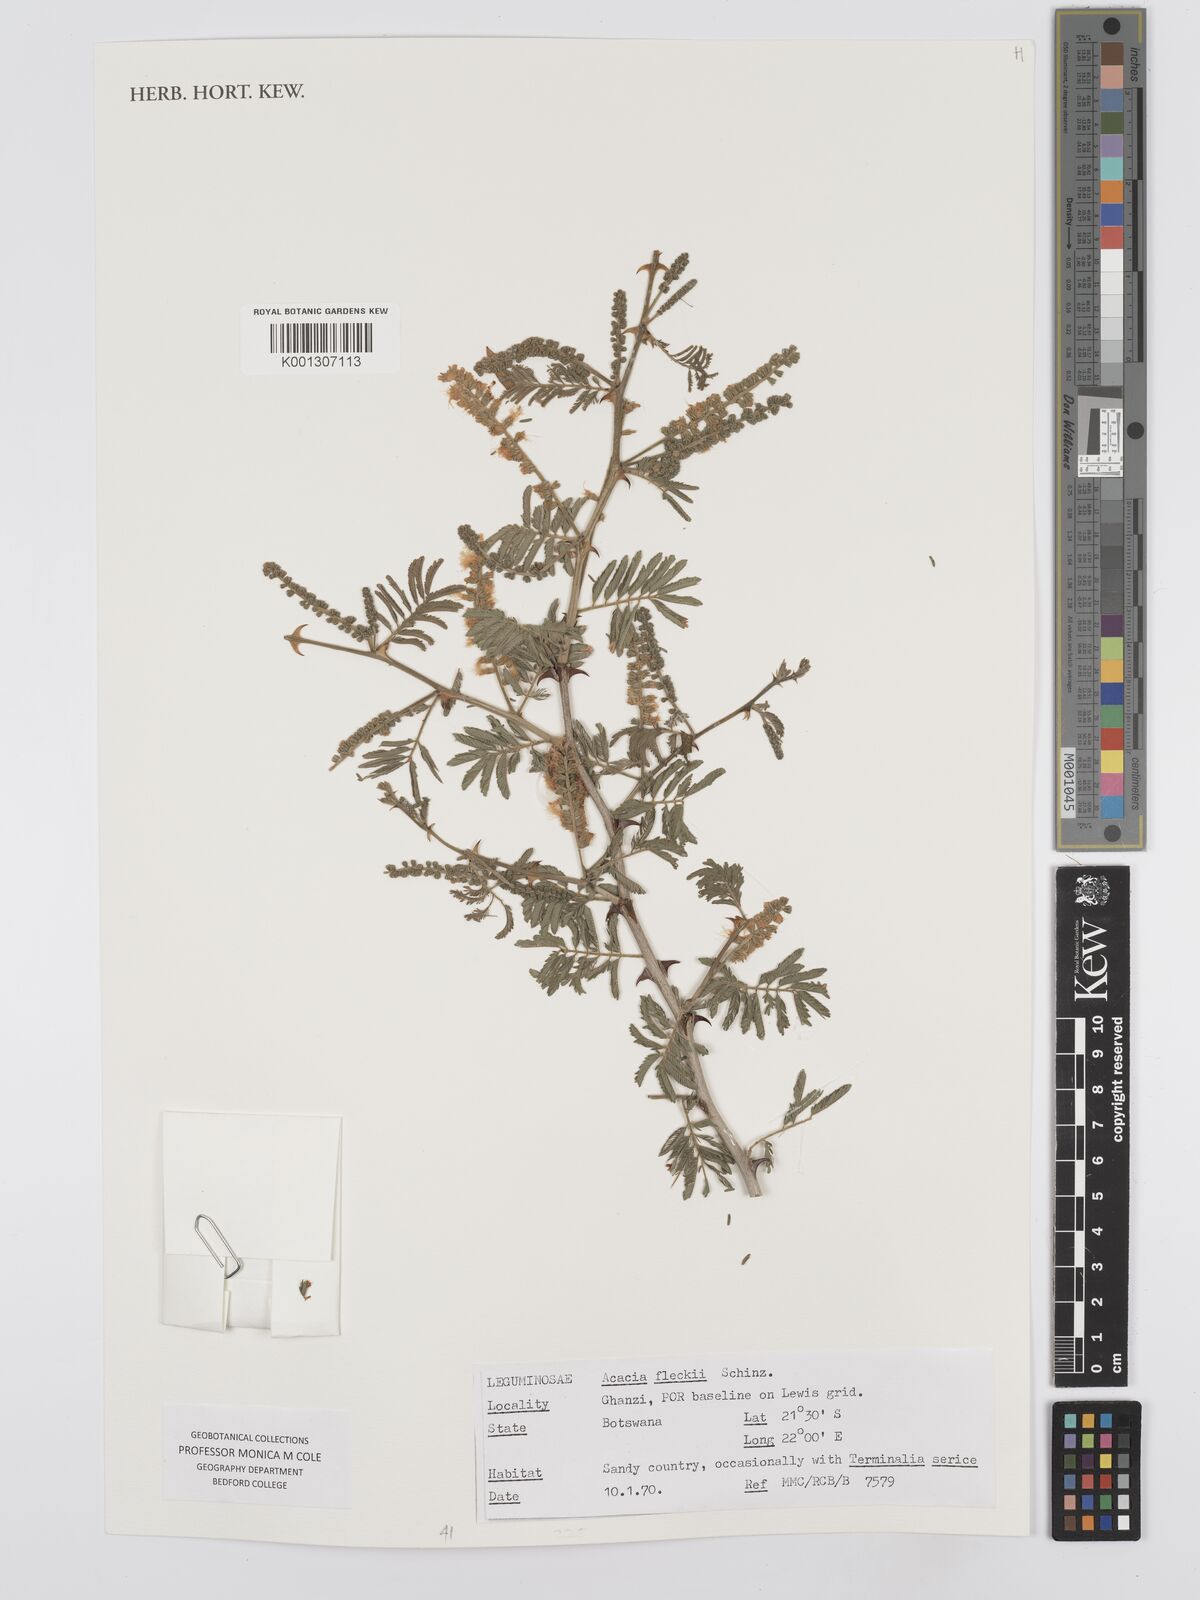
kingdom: Plantae
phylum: Tracheophyta
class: Magnoliopsida
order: Fabales
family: Fabaceae
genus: Senegalia
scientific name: Senegalia fleckii
